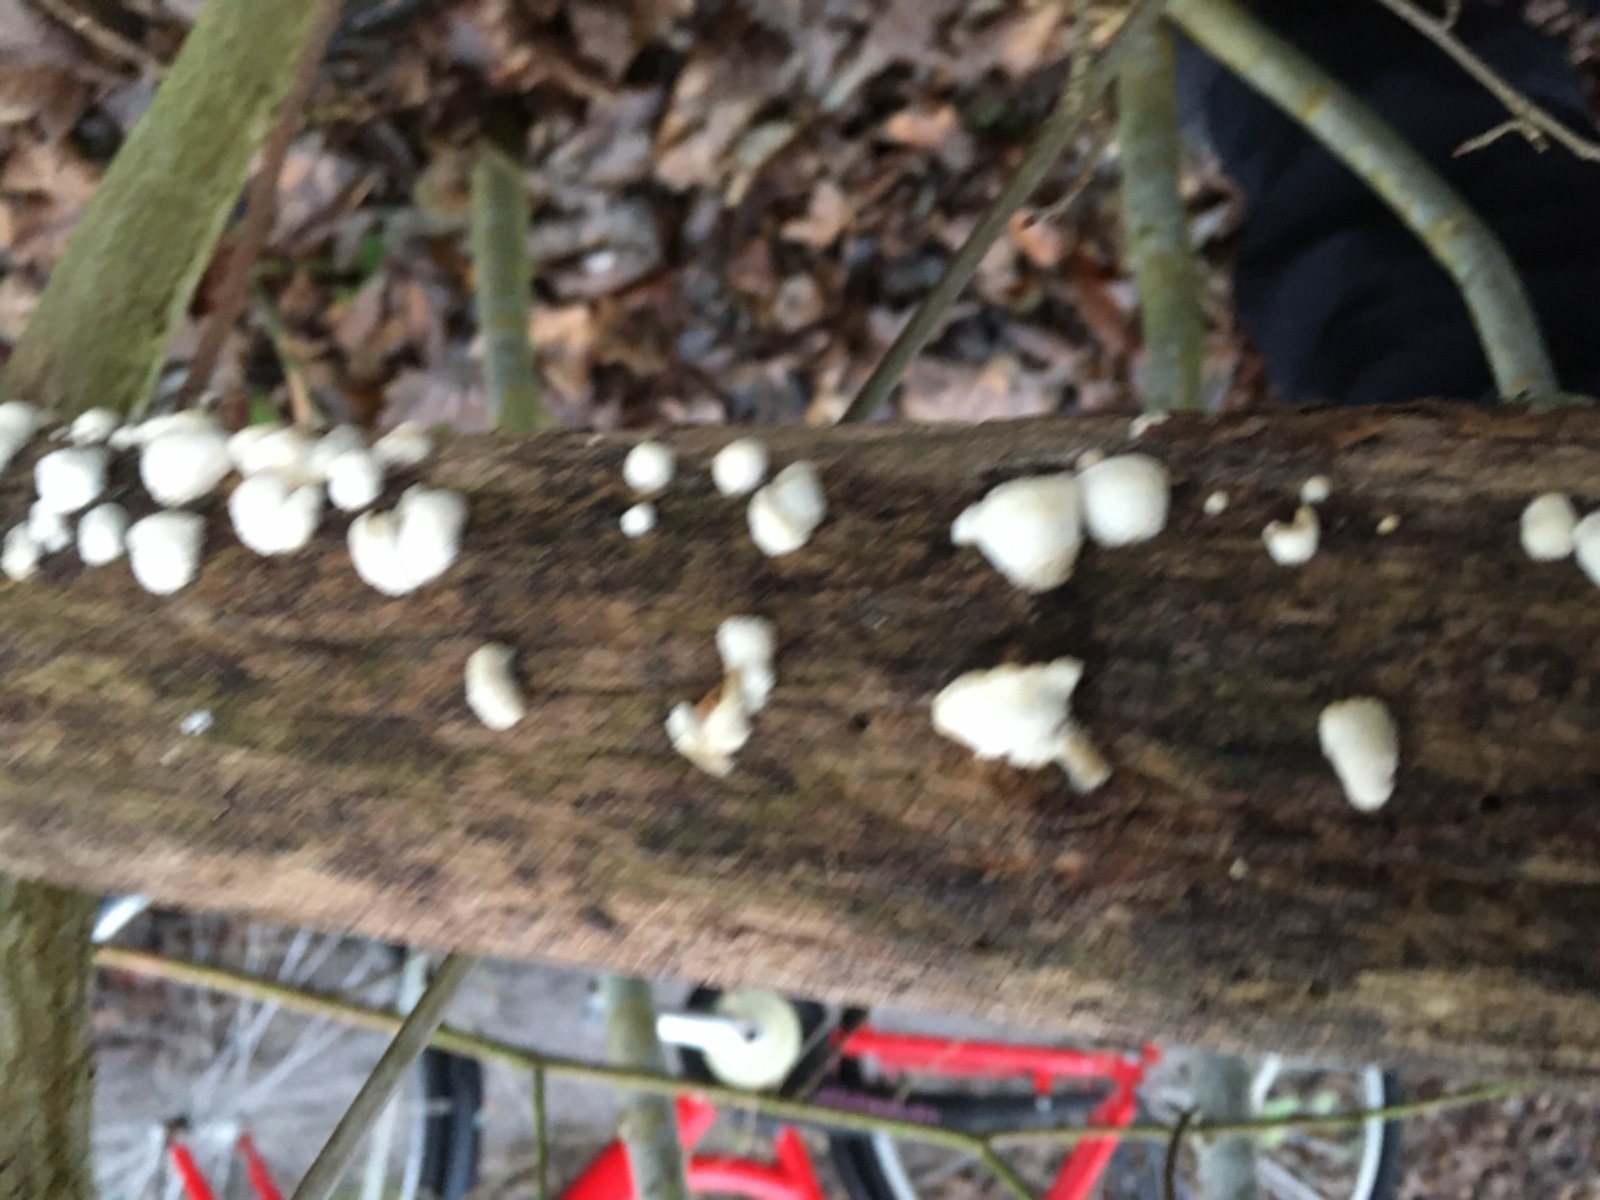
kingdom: Fungi
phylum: Basidiomycota
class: Agaricomycetes
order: Amylocorticiales
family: Amylocorticiaceae
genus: Plicaturopsis
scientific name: Plicaturopsis crispa
